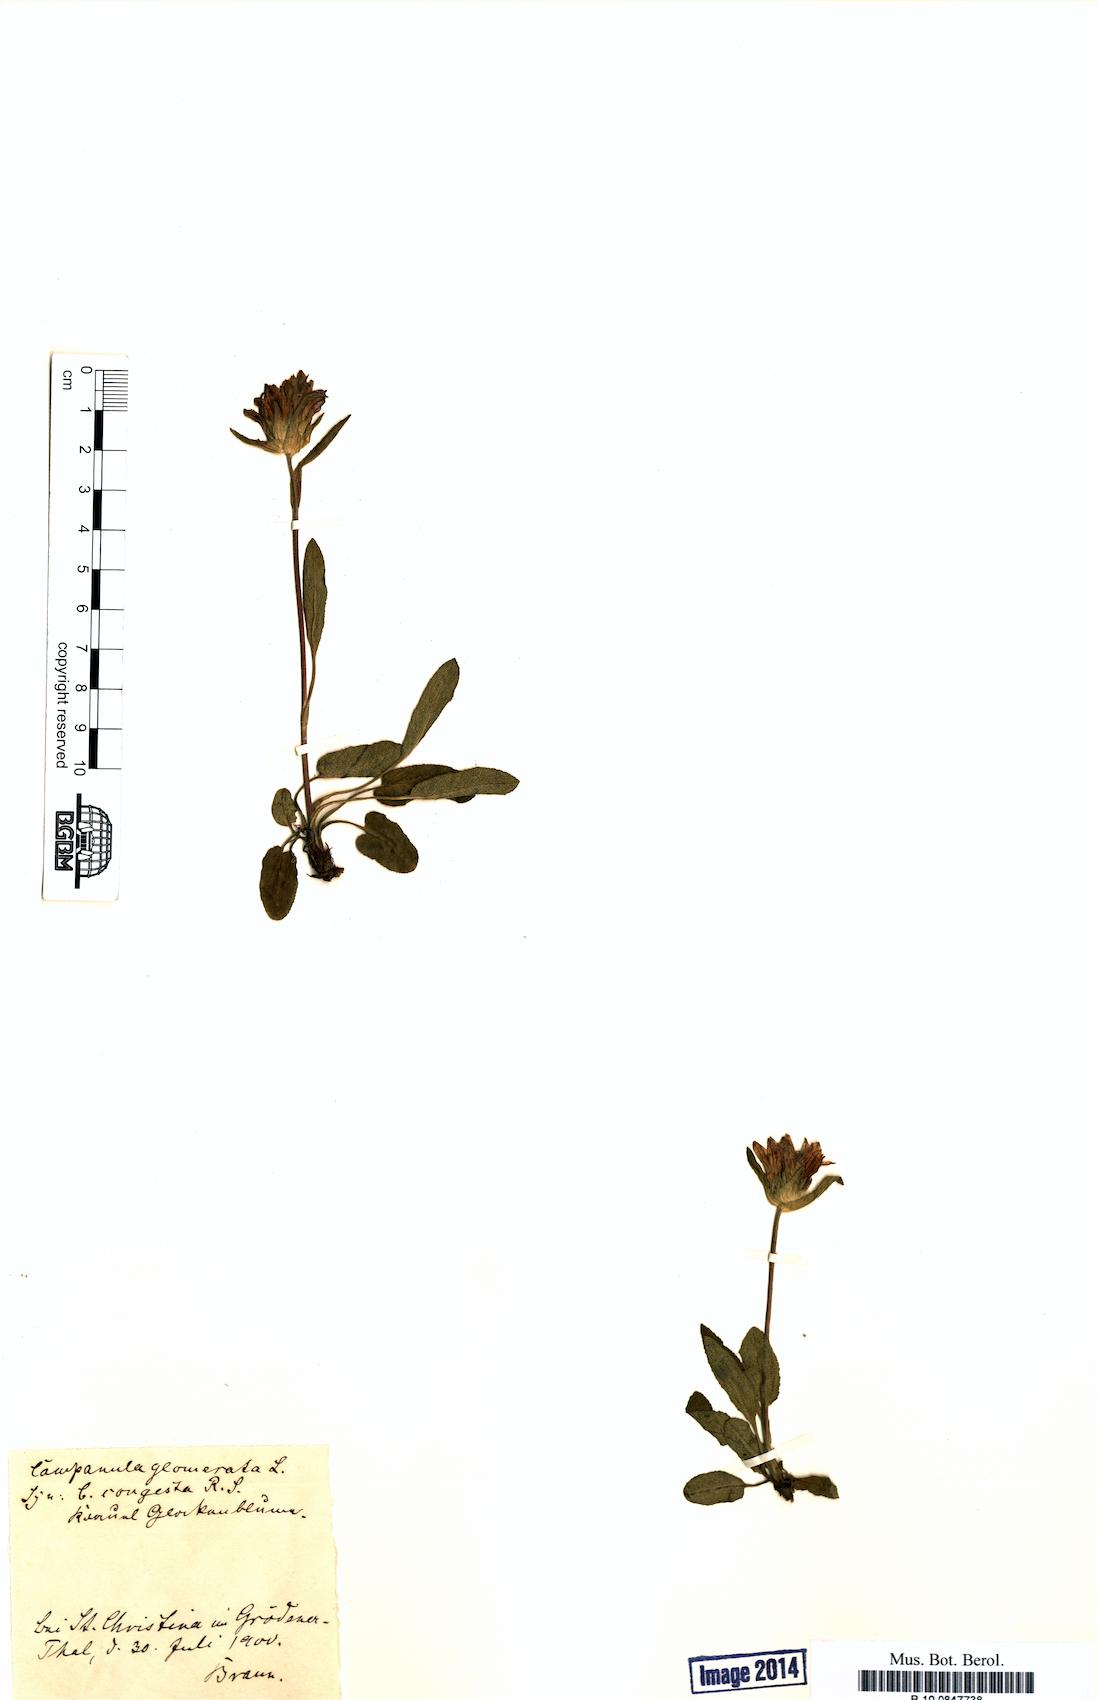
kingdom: Plantae
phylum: Tracheophyta
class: Magnoliopsida
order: Asterales
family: Campanulaceae
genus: Campanula
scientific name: Campanula glomerata
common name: Clustered bellflower
